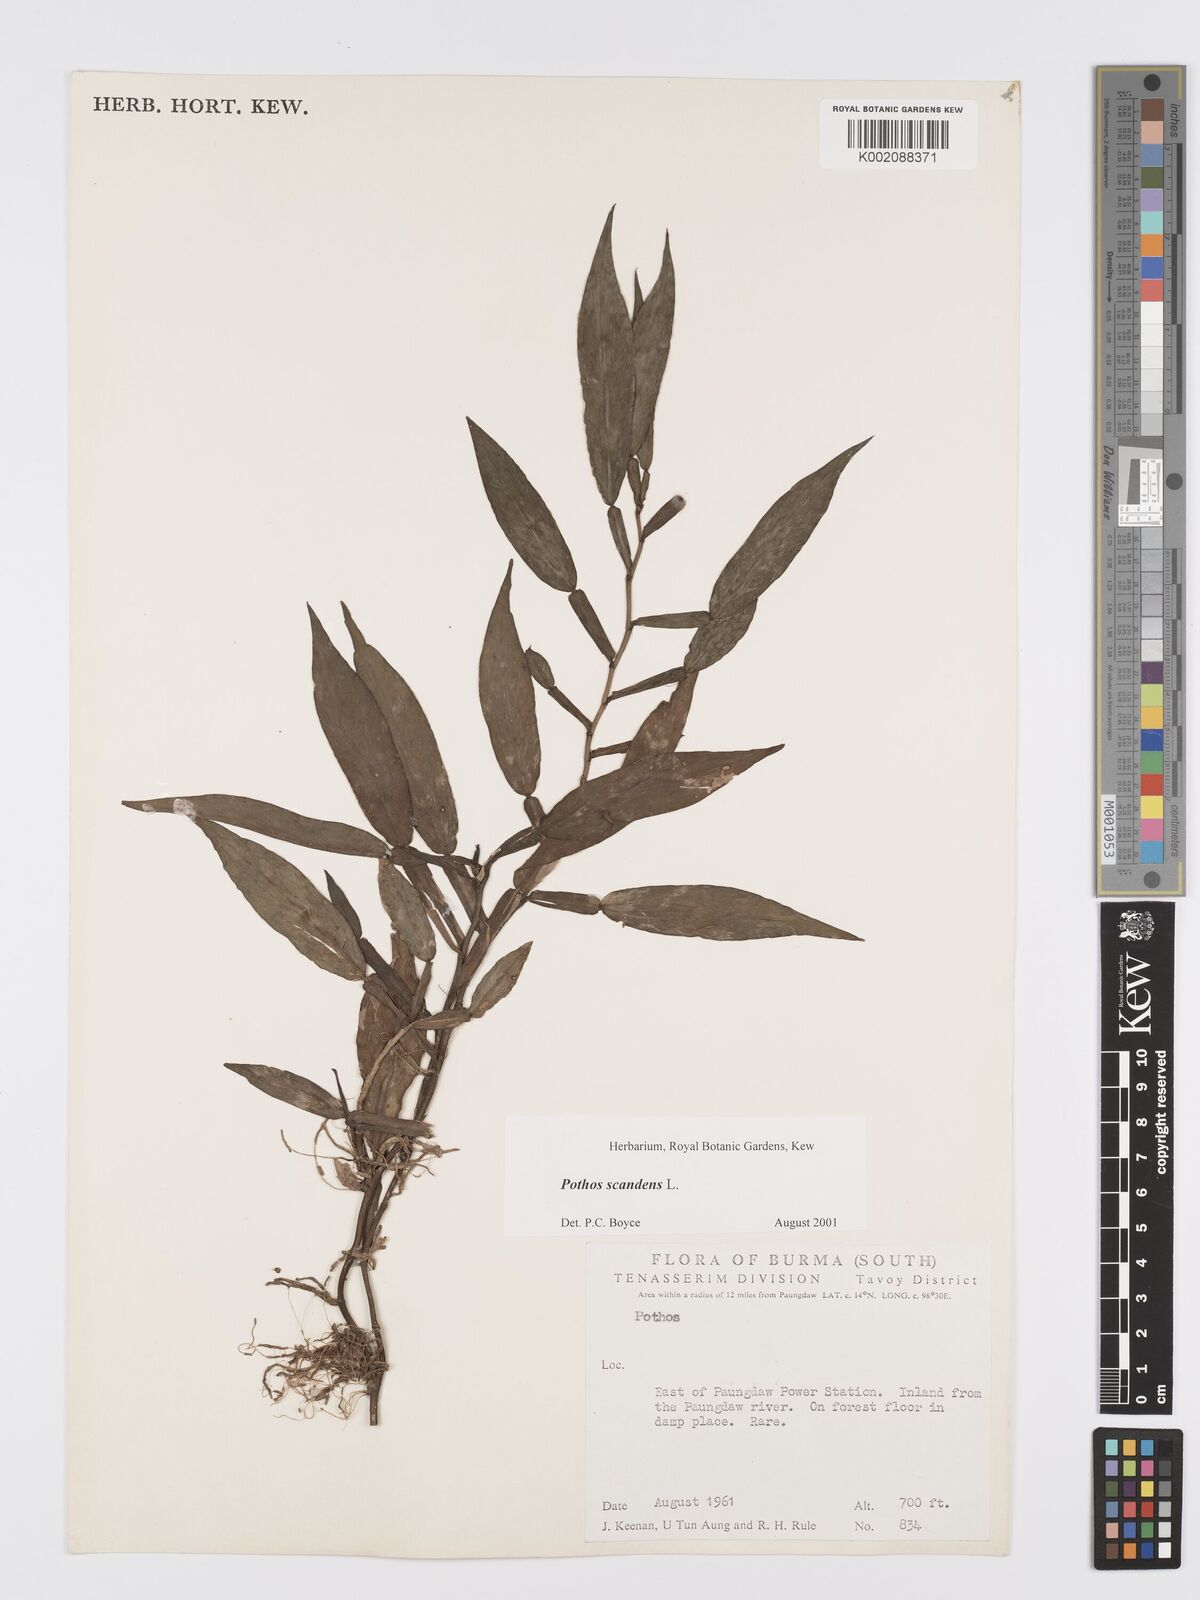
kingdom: Plantae
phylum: Tracheophyta
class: Liliopsida
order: Alismatales
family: Araceae
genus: Pothos
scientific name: Pothos scandens
